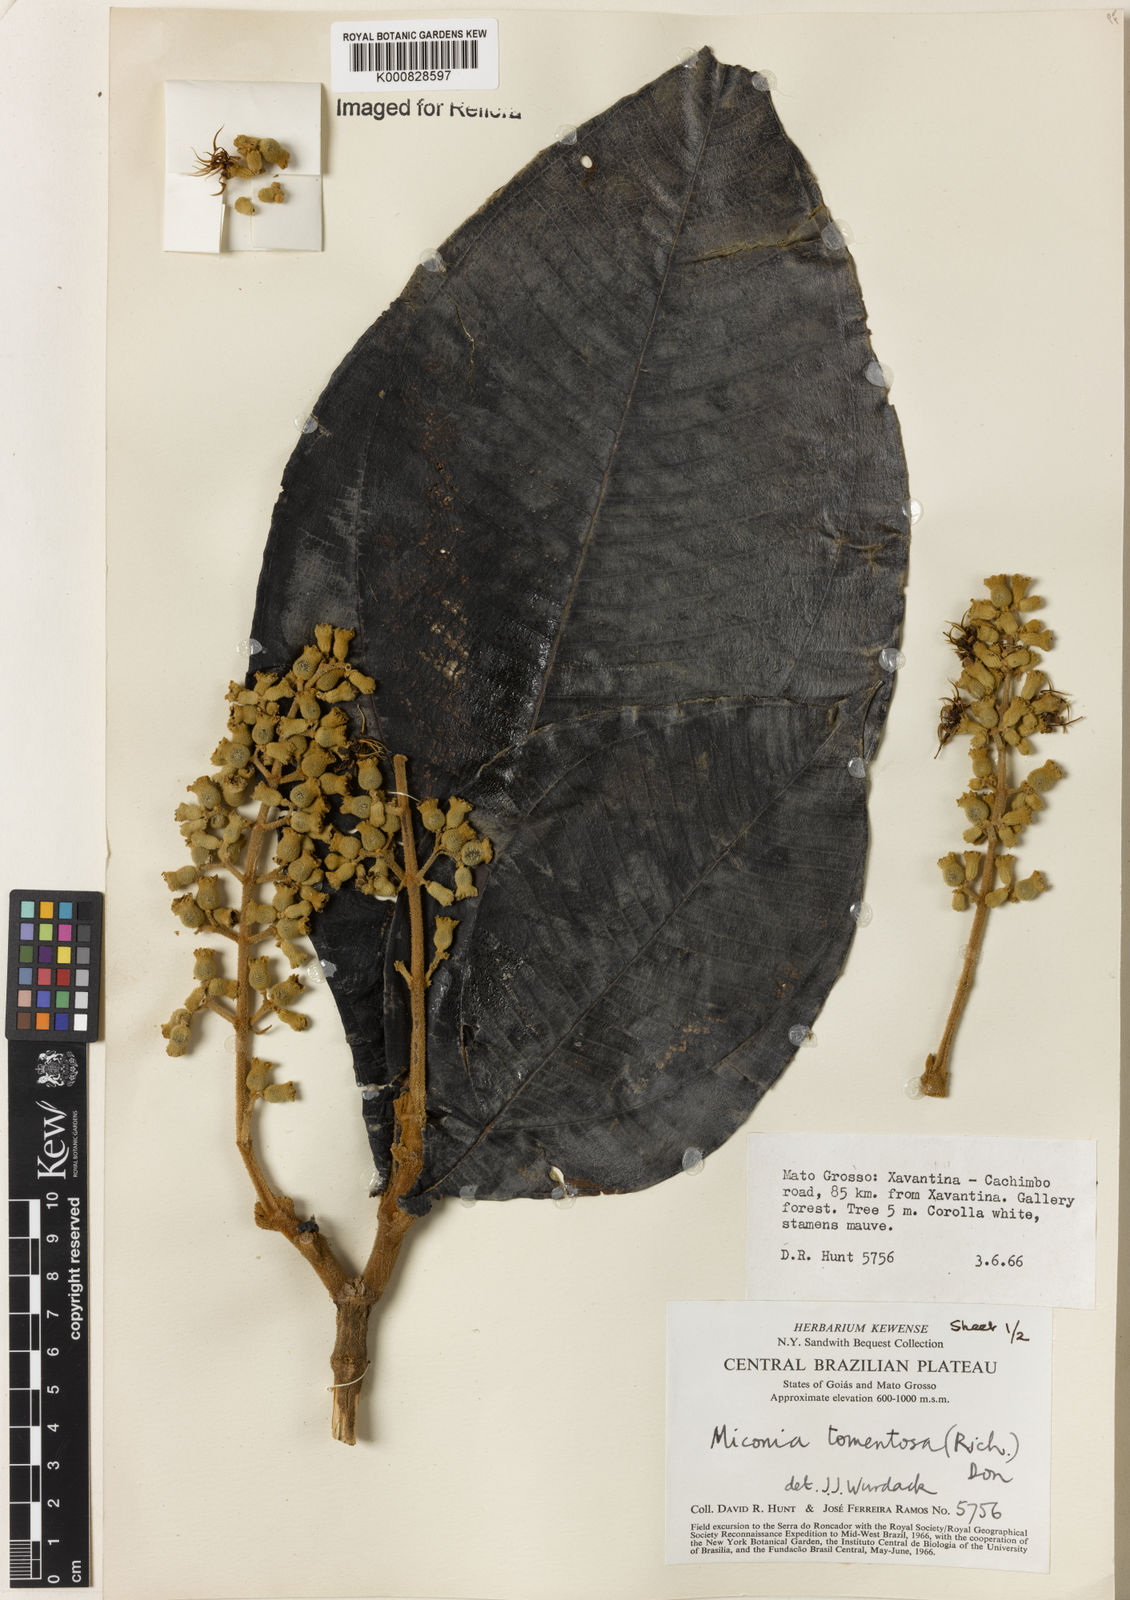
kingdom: Plantae
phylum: Tracheophyta
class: Magnoliopsida
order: Myrtales
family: Melastomataceae
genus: Miconia
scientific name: Miconia tomentosa
